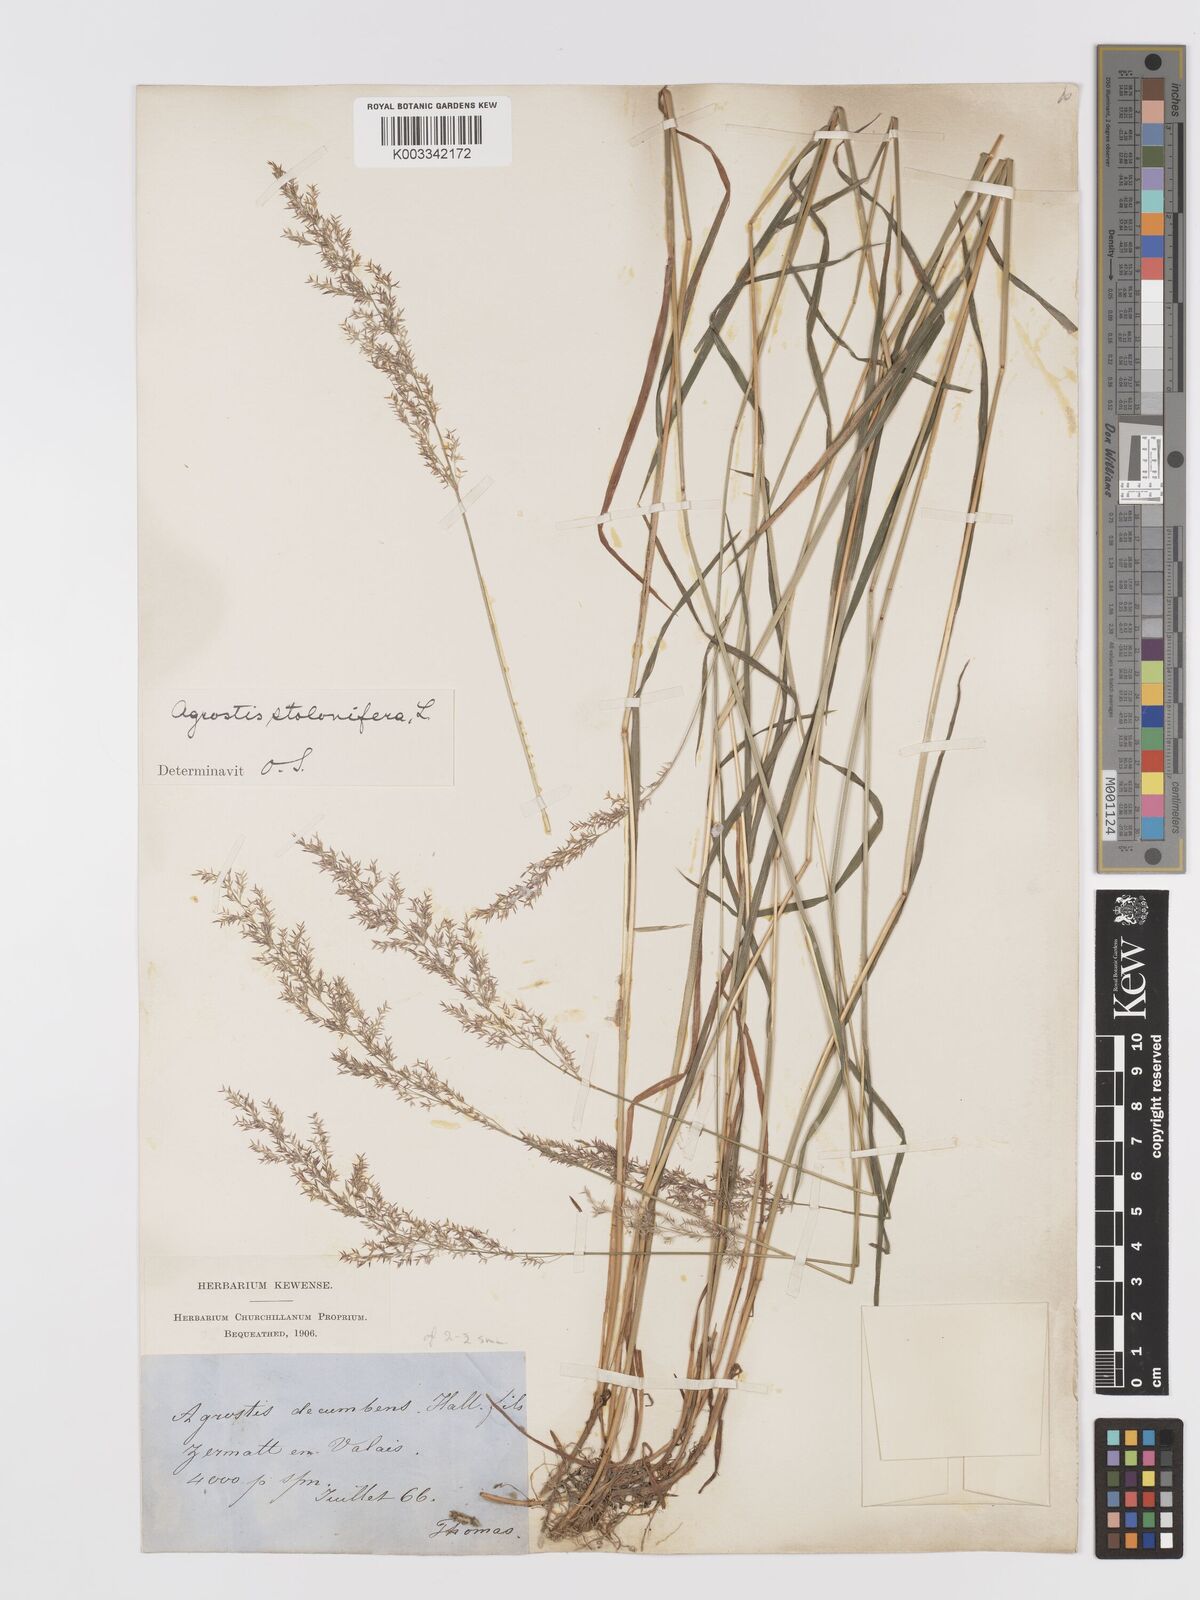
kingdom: Plantae
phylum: Tracheophyta
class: Liliopsida
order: Poales
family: Poaceae
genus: Agrostis
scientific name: Agrostis stolonifera
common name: Creeping bentgrass
